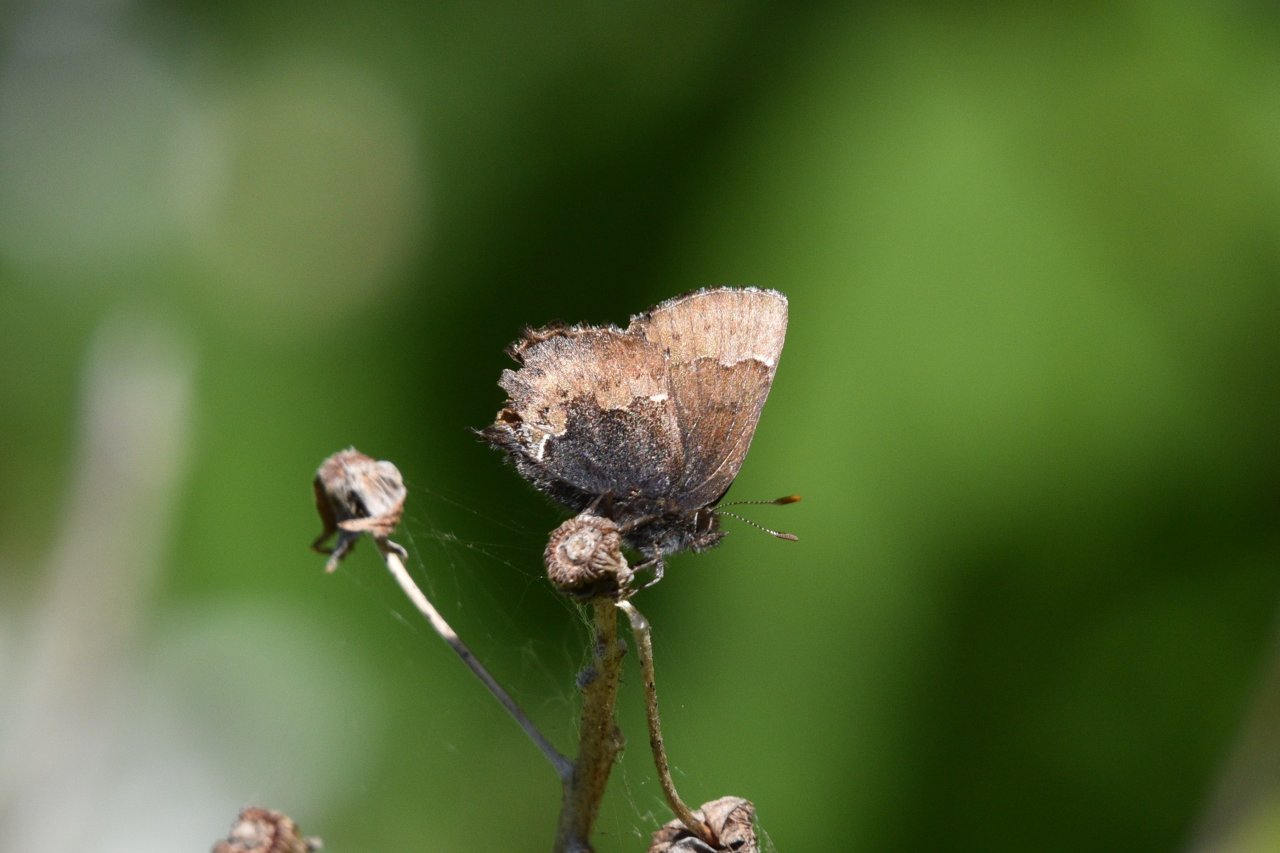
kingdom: Animalia
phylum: Arthropoda
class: Insecta
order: Lepidoptera
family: Lycaenidae
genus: Incisalia
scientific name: Incisalia henrici
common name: Henry's Elfin
